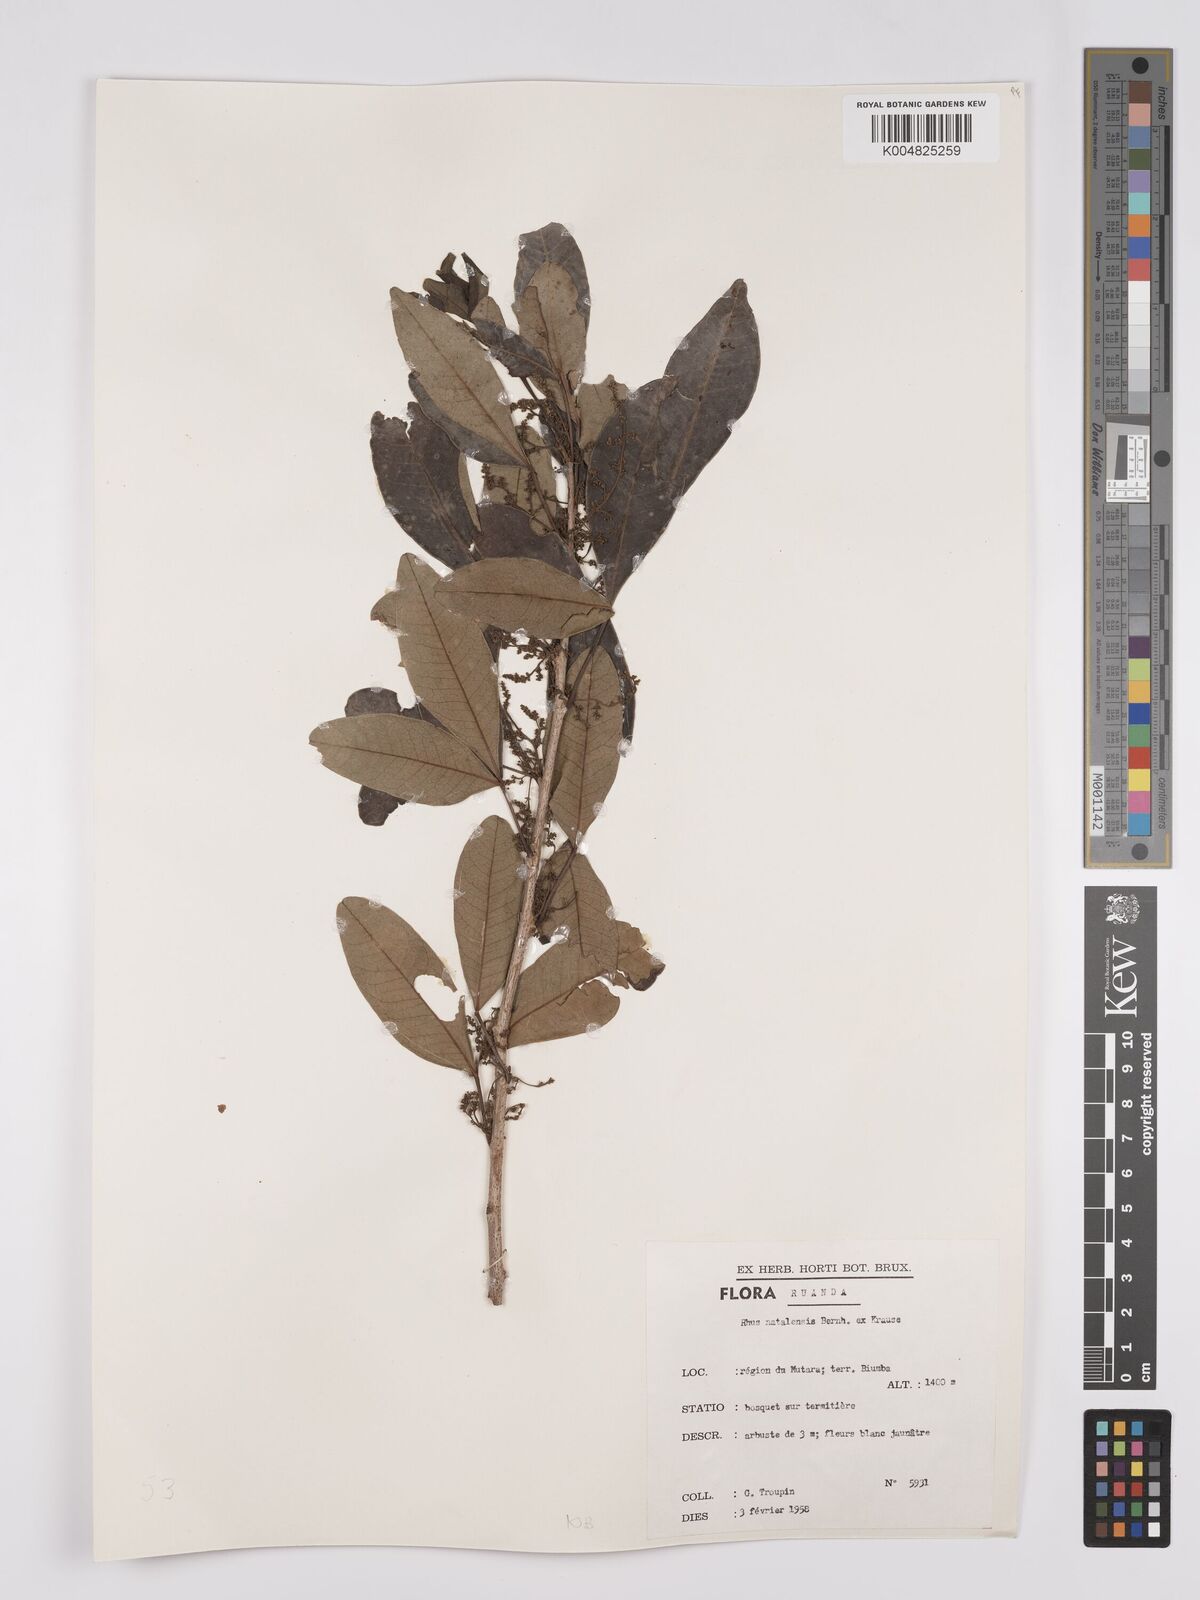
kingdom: Plantae
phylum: Tracheophyta
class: Magnoliopsida
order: Sapindales
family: Anacardiaceae
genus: Searsia
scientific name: Searsia natalensis
